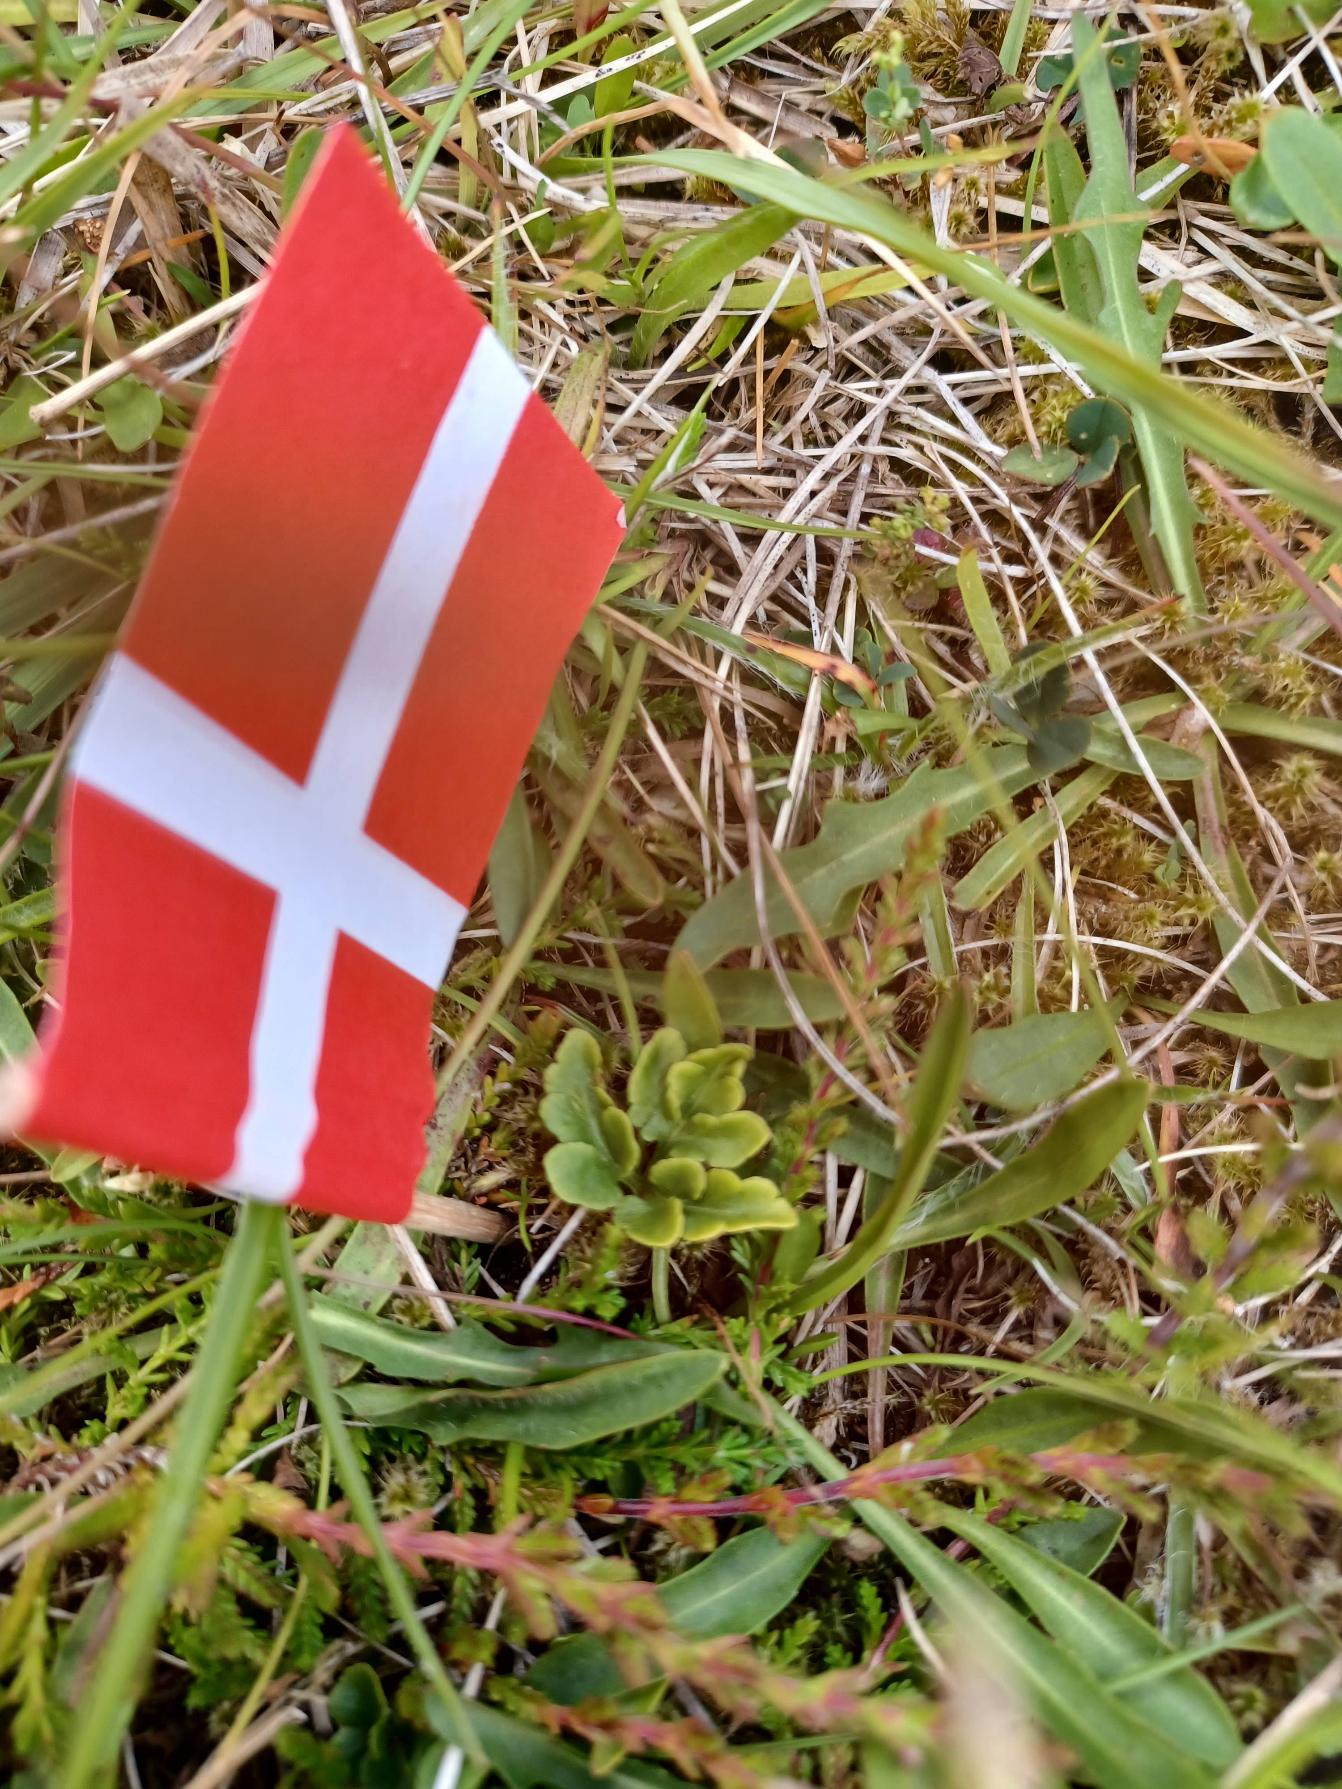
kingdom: Plantae
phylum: Tracheophyta
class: Polypodiopsida
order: Ophioglossales
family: Ophioglossaceae
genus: Sceptridium
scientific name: Sceptridium multifidum
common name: Stilk-månerude
